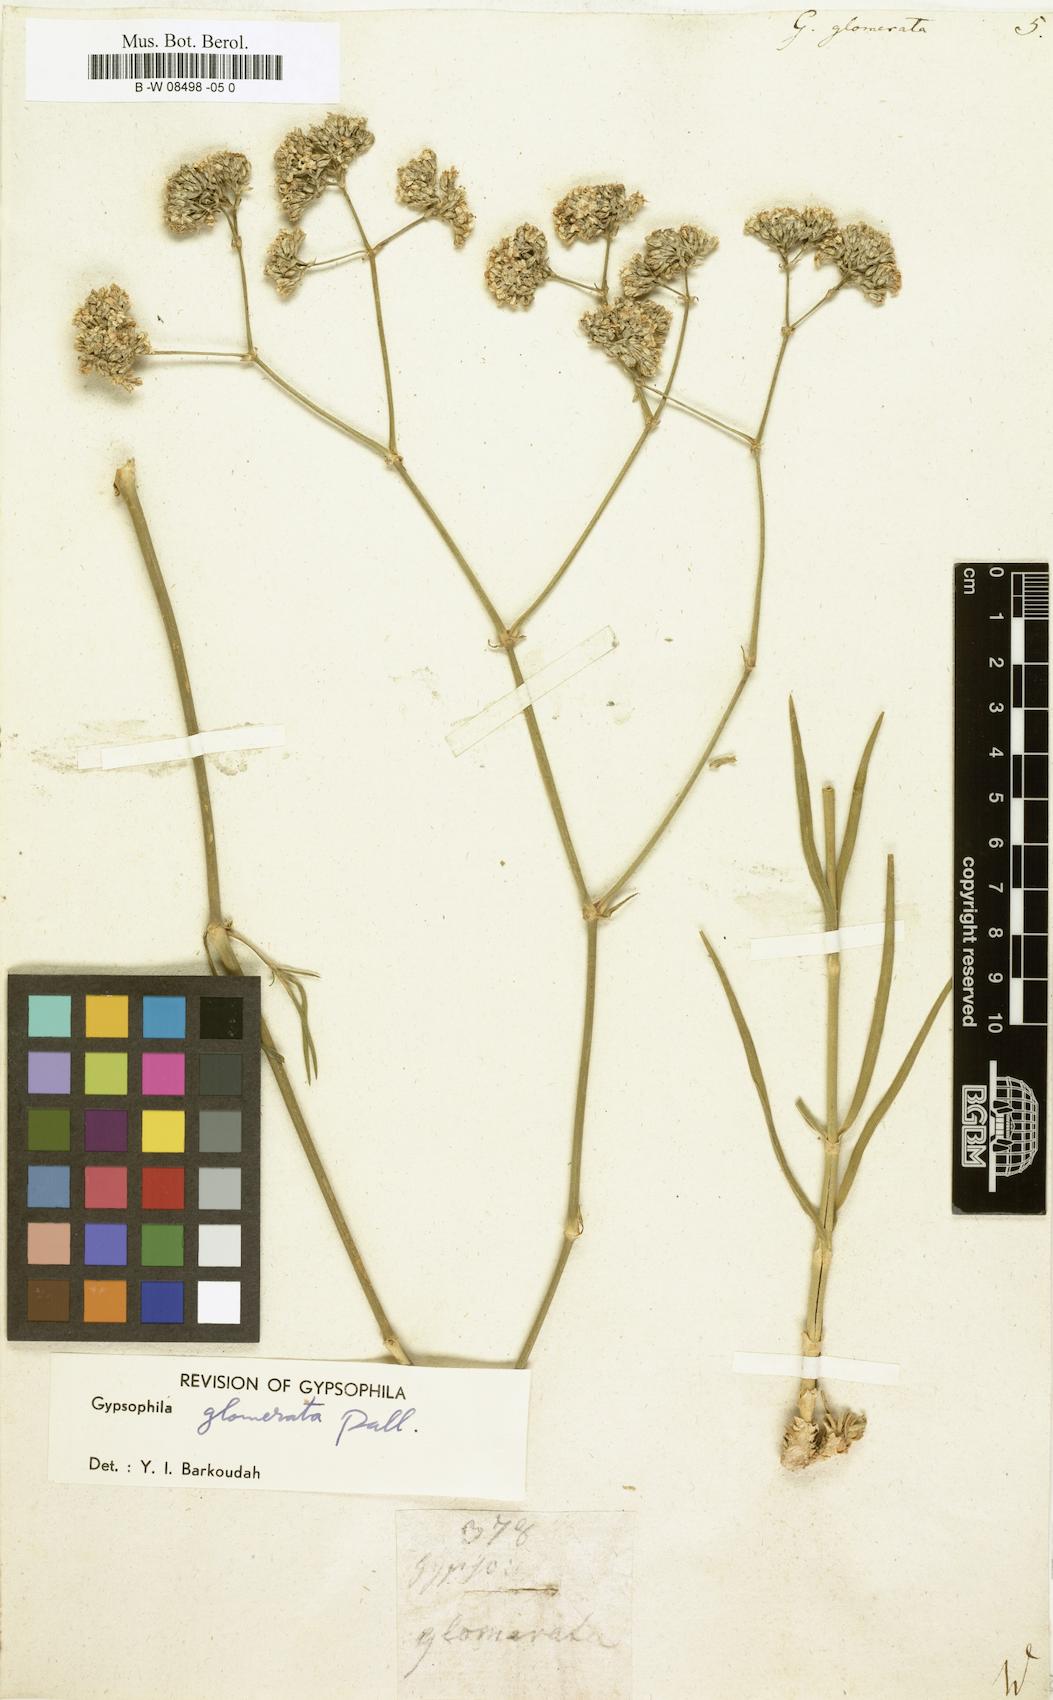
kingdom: Plantae
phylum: Tracheophyta
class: Magnoliopsida
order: Caryophyllales
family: Caryophyllaceae
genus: Gypsophila
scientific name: Gypsophila glomerata
